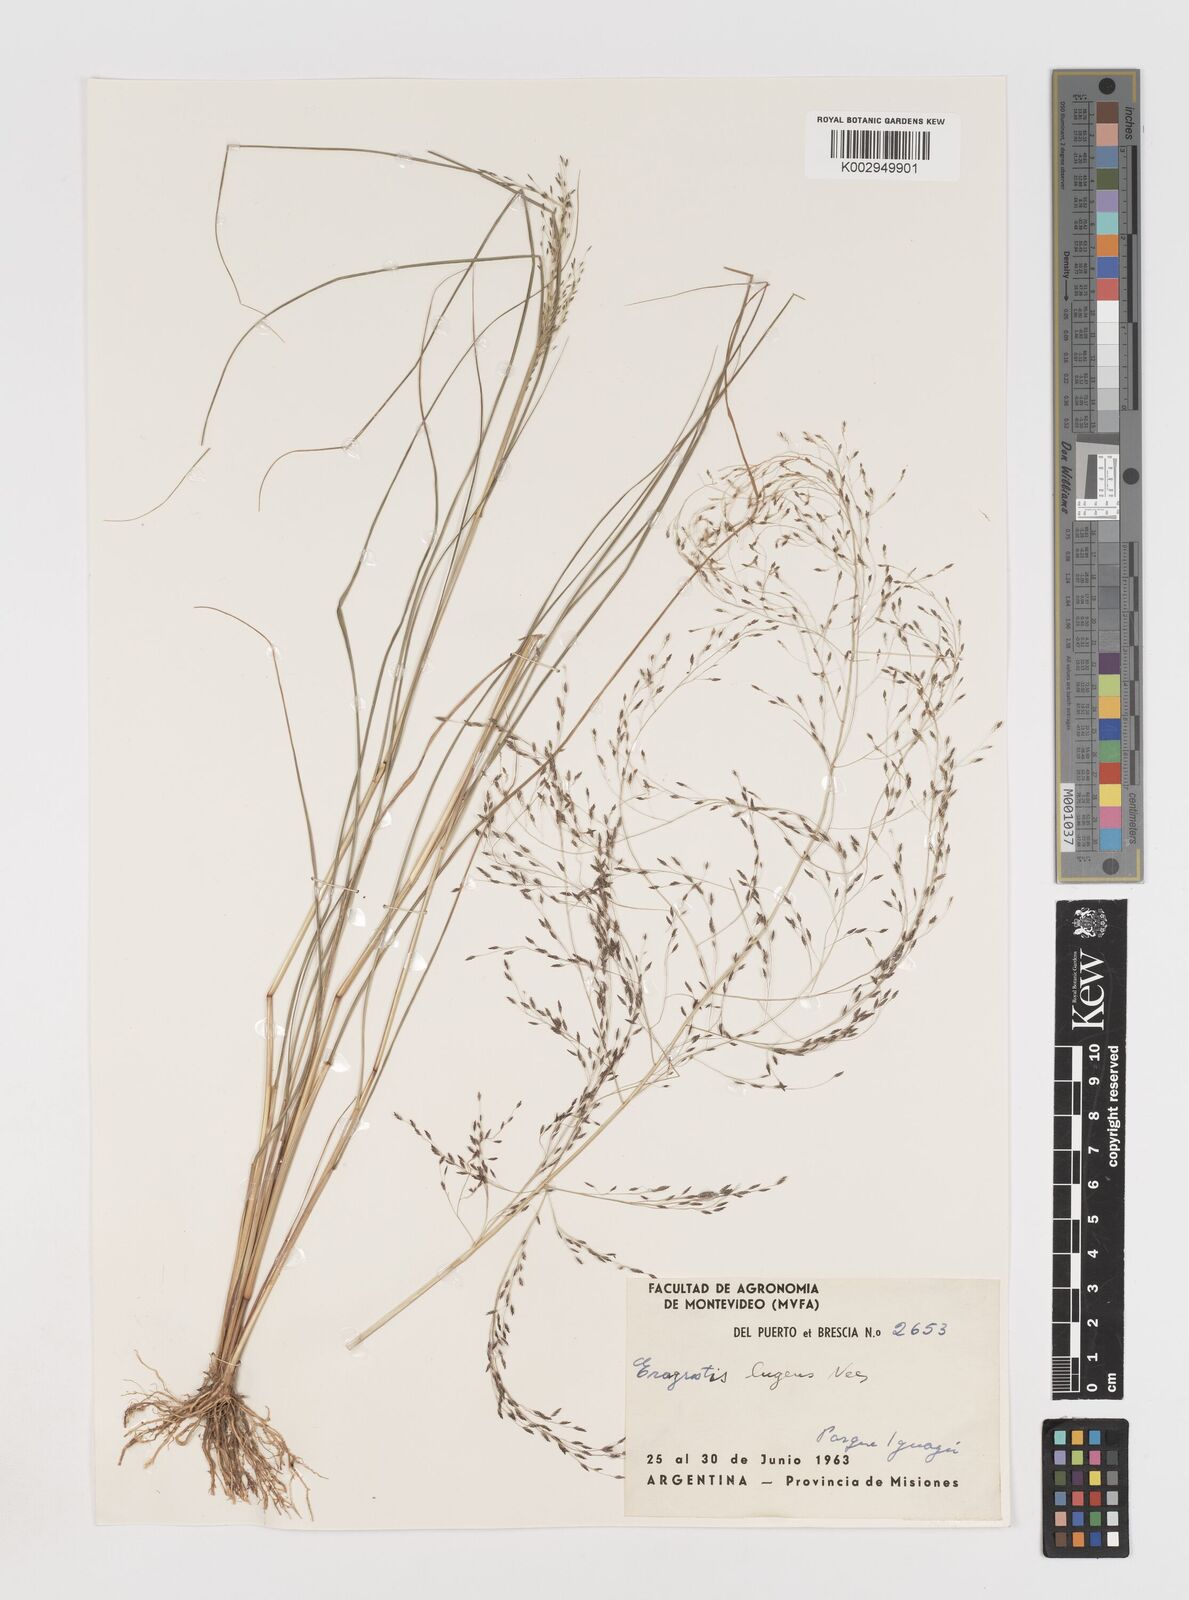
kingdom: Plantae
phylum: Tracheophyta
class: Liliopsida
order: Poales
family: Poaceae
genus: Eragrostis
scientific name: Eragrostis lugens
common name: Mourning love grass
